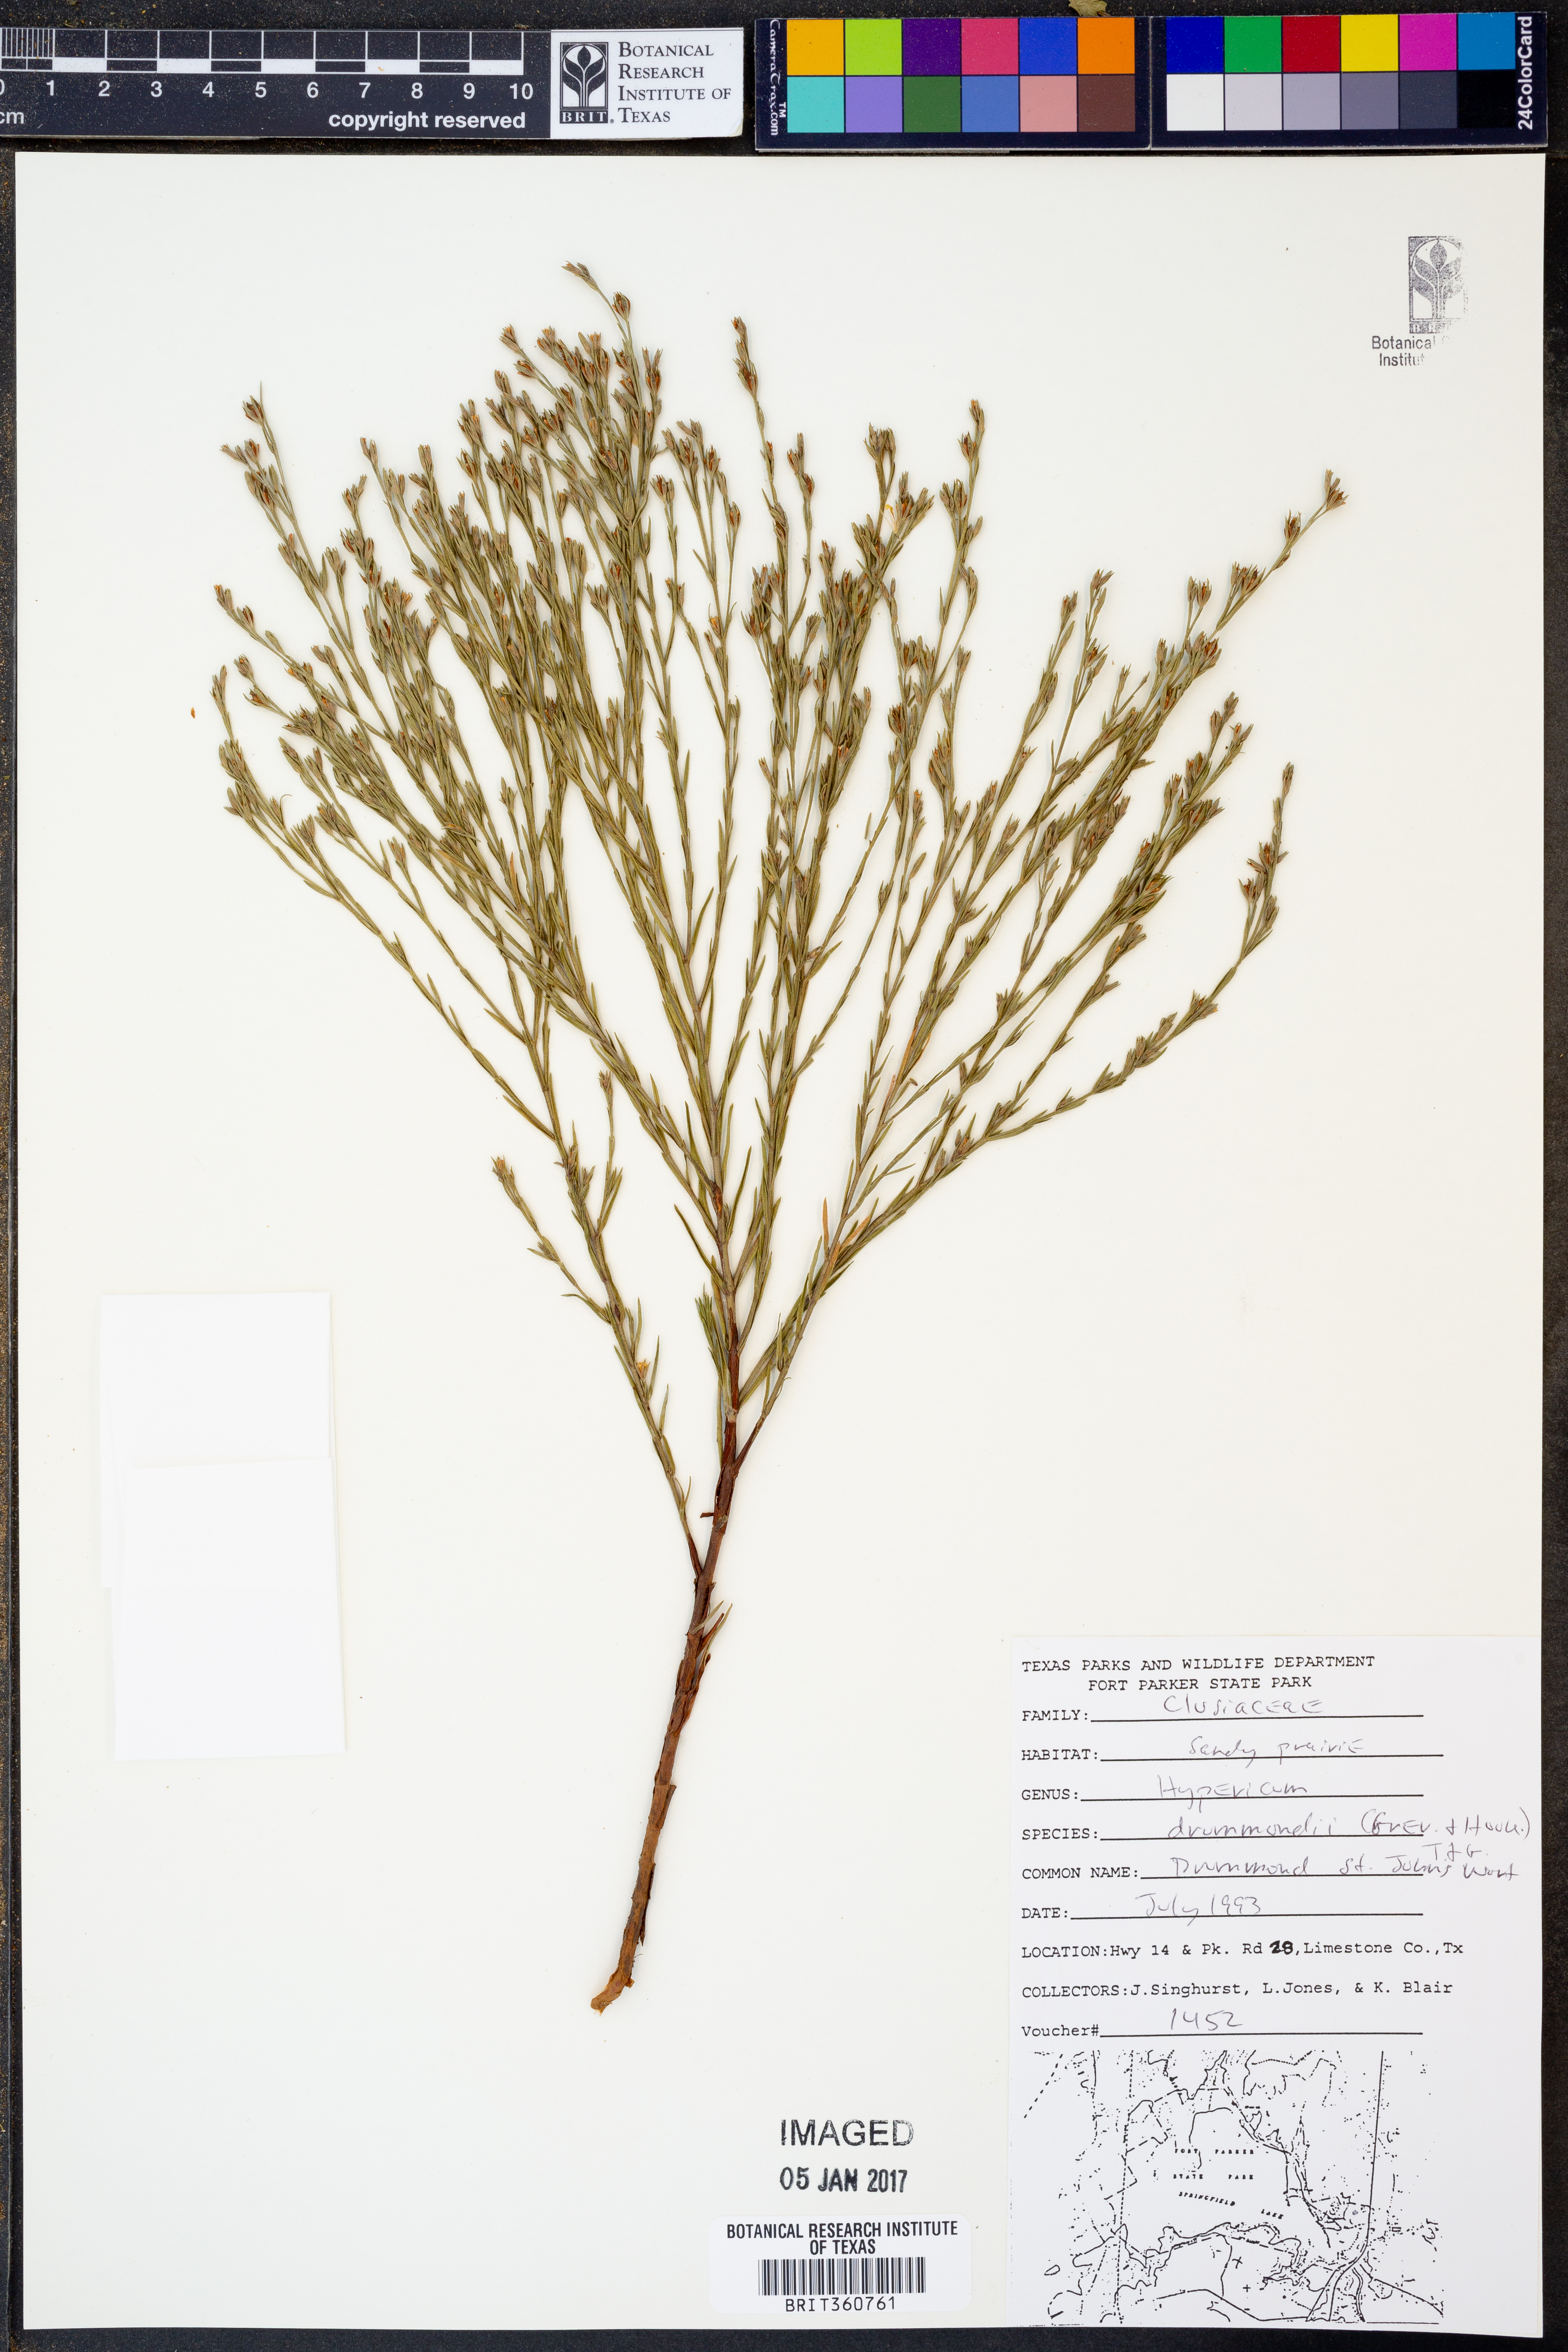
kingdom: Plantae
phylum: Tracheophyta
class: Magnoliopsida
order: Malpighiales
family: Hypericaceae
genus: Hypericum
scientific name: Hypericum drummondii
